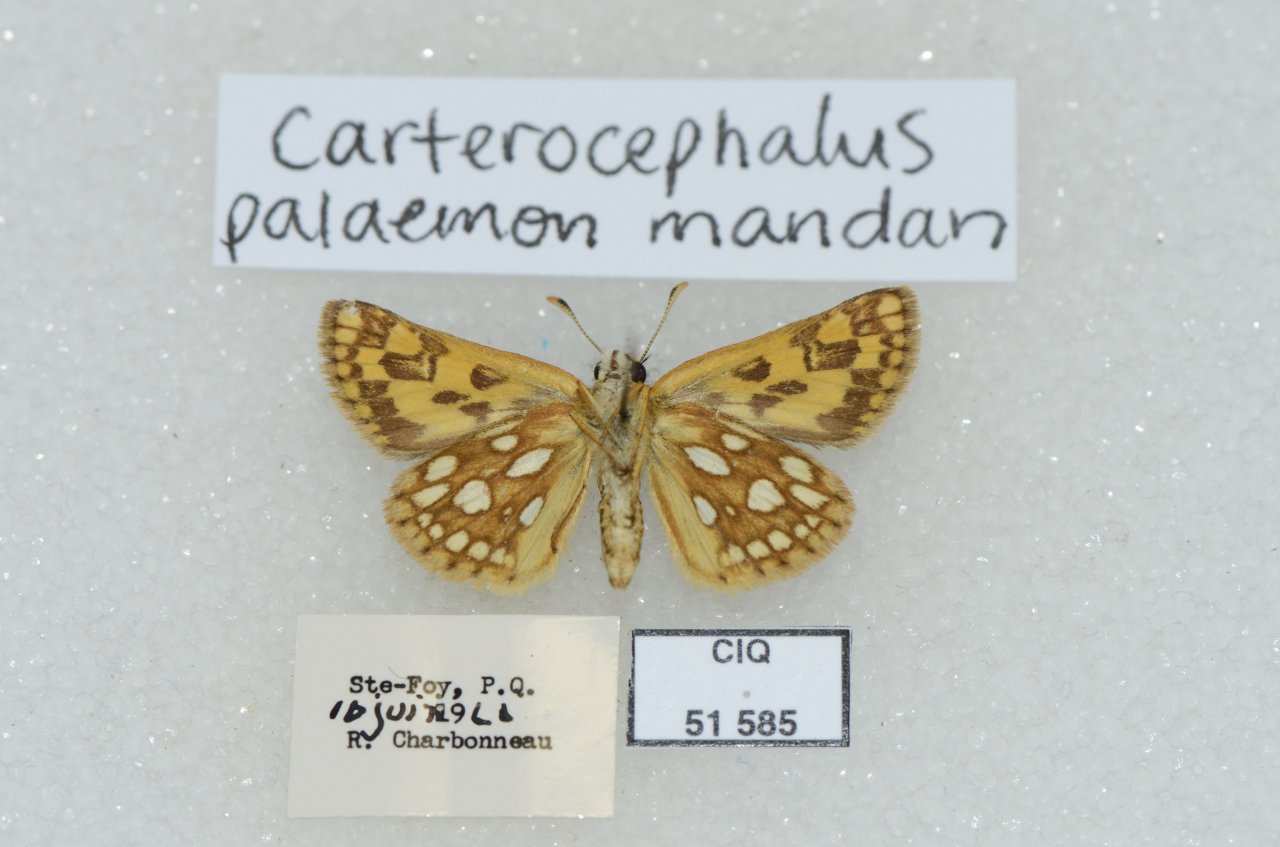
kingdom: Animalia
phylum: Arthropoda
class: Insecta
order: Lepidoptera
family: Hesperiidae
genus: Carterocephalus
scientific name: Carterocephalus palaemon
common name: Chequered Skipper
